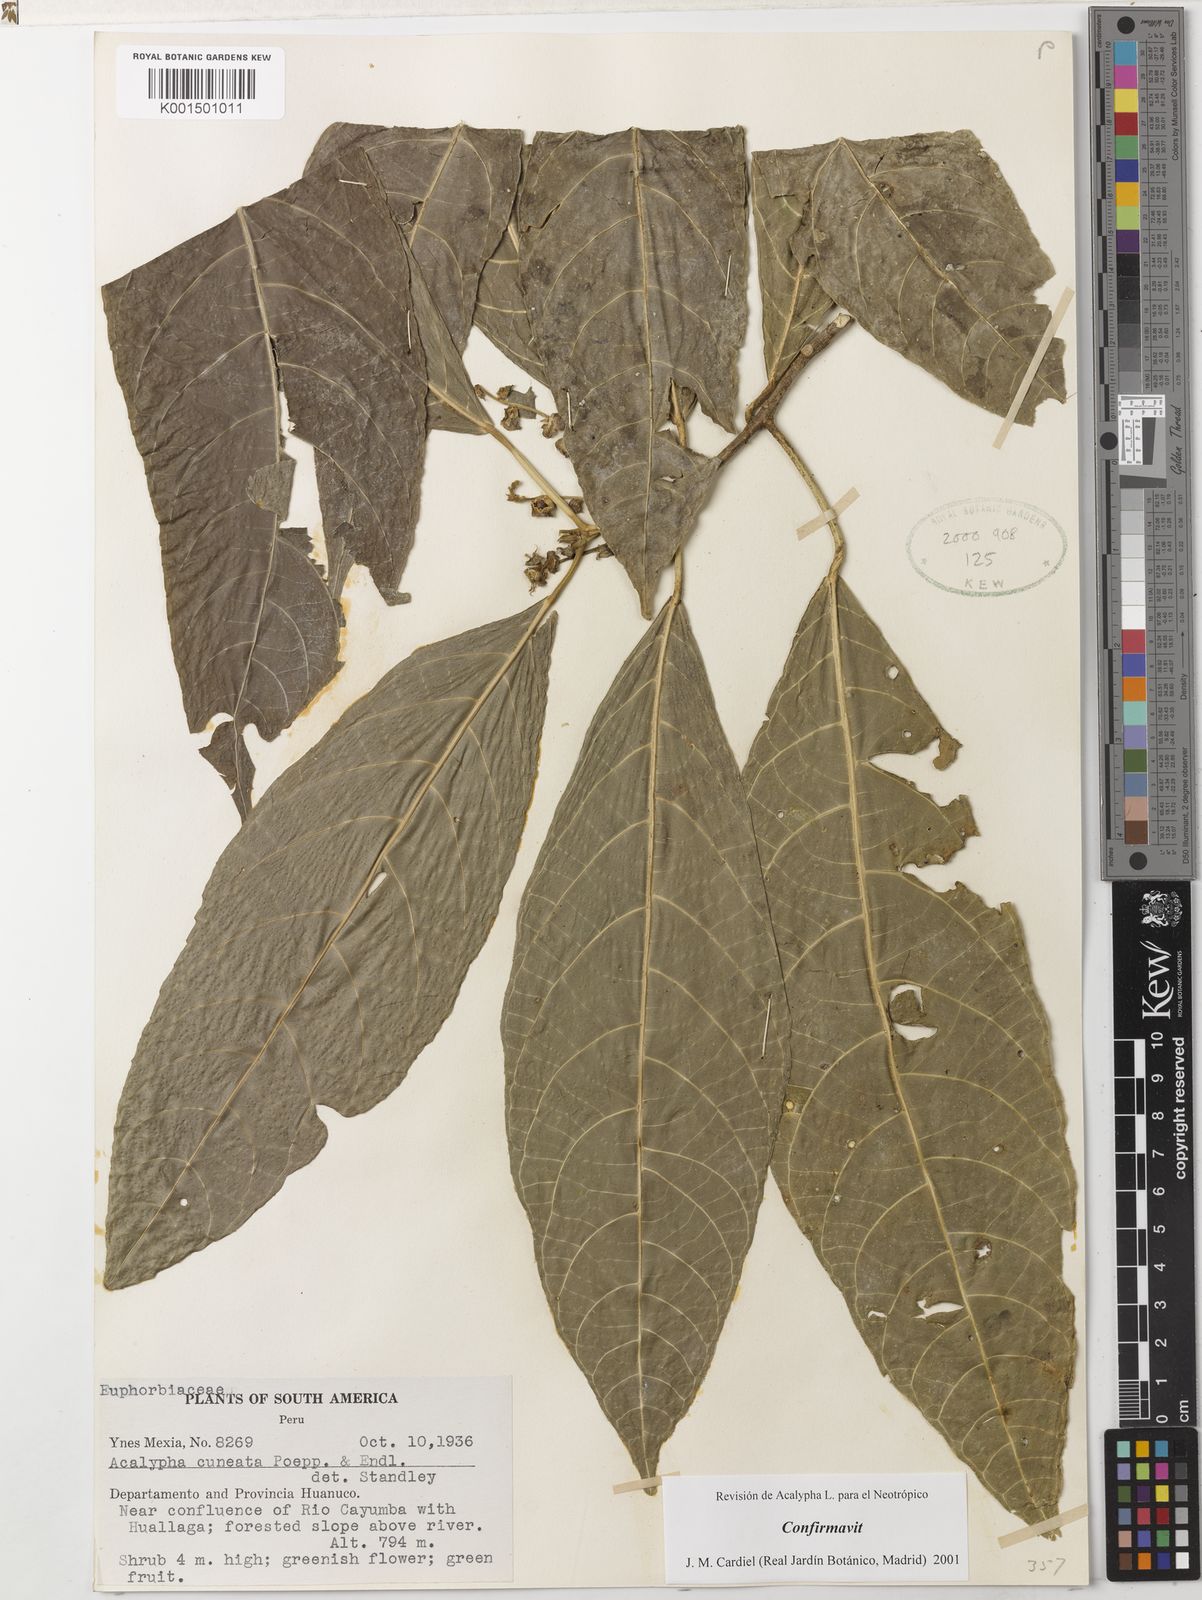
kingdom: Plantae
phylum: Tracheophyta
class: Magnoliopsida
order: Malpighiales
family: Euphorbiaceae
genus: Acalypha
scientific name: Acalypha cuneata
